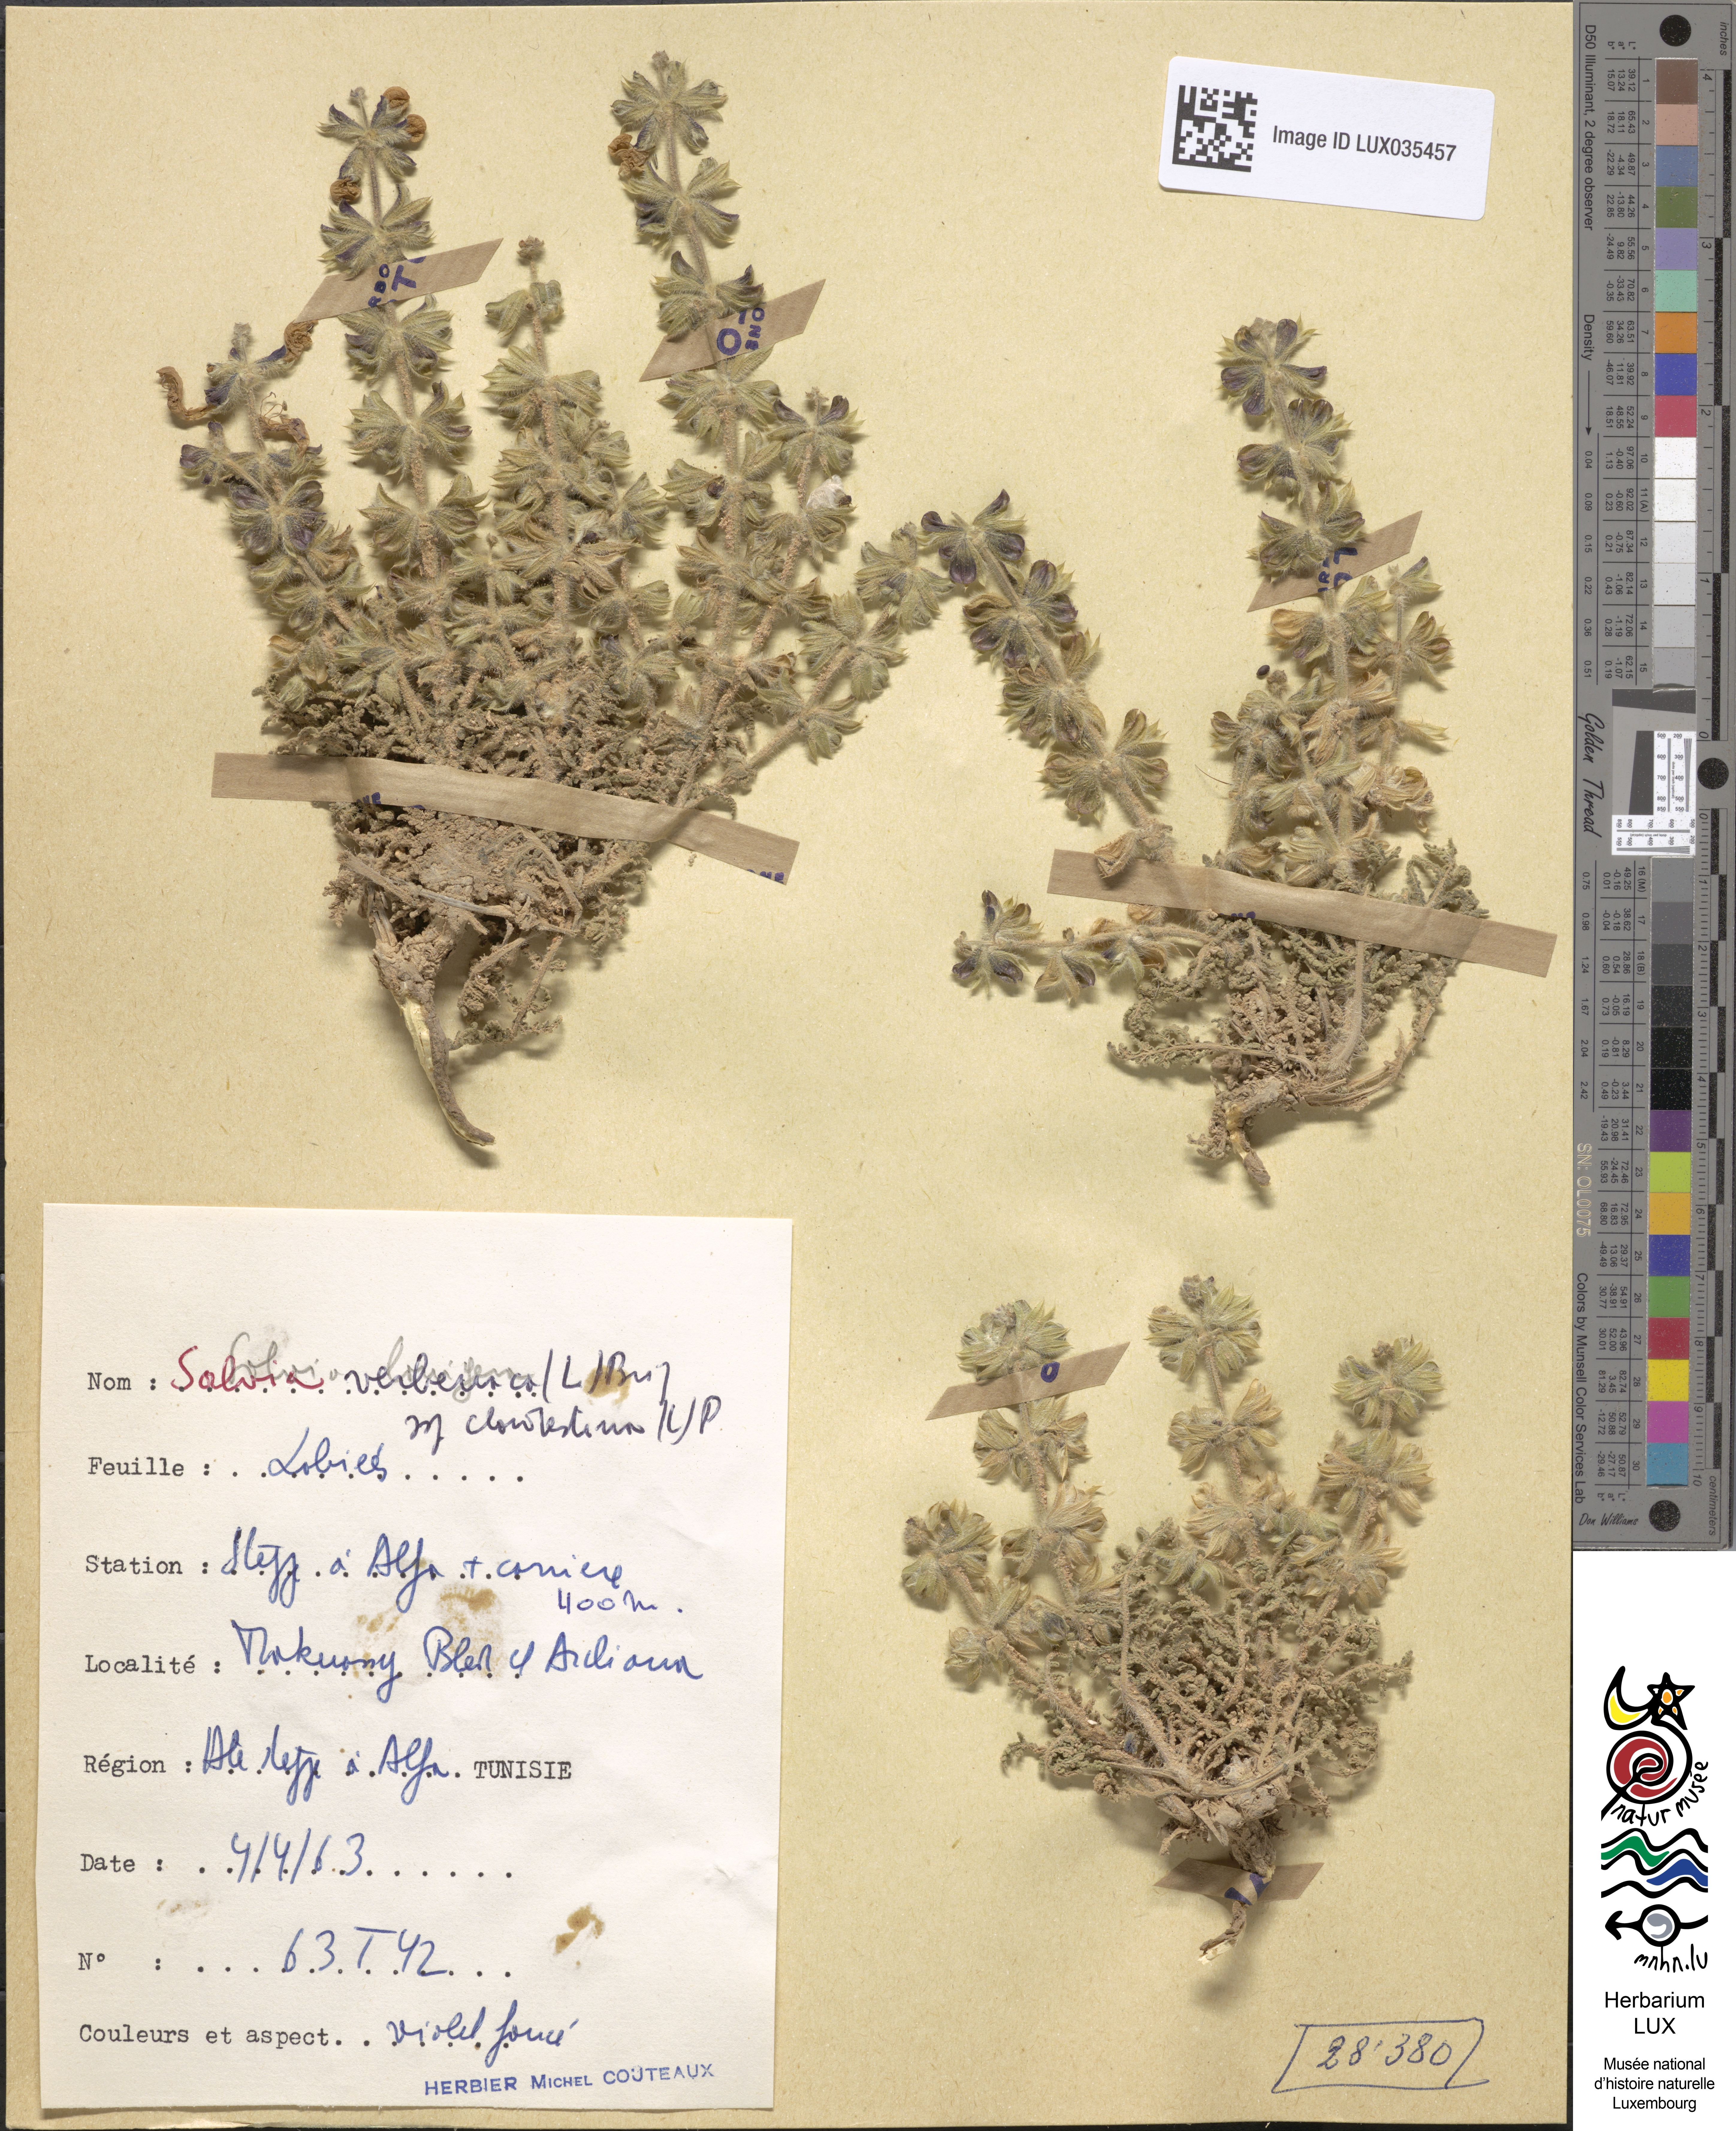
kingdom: Plantae
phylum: Tracheophyta
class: Magnoliopsida
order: Lamiales
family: Lamiaceae
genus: Salvia
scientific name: Salvia verbenaca
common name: Wild clary
